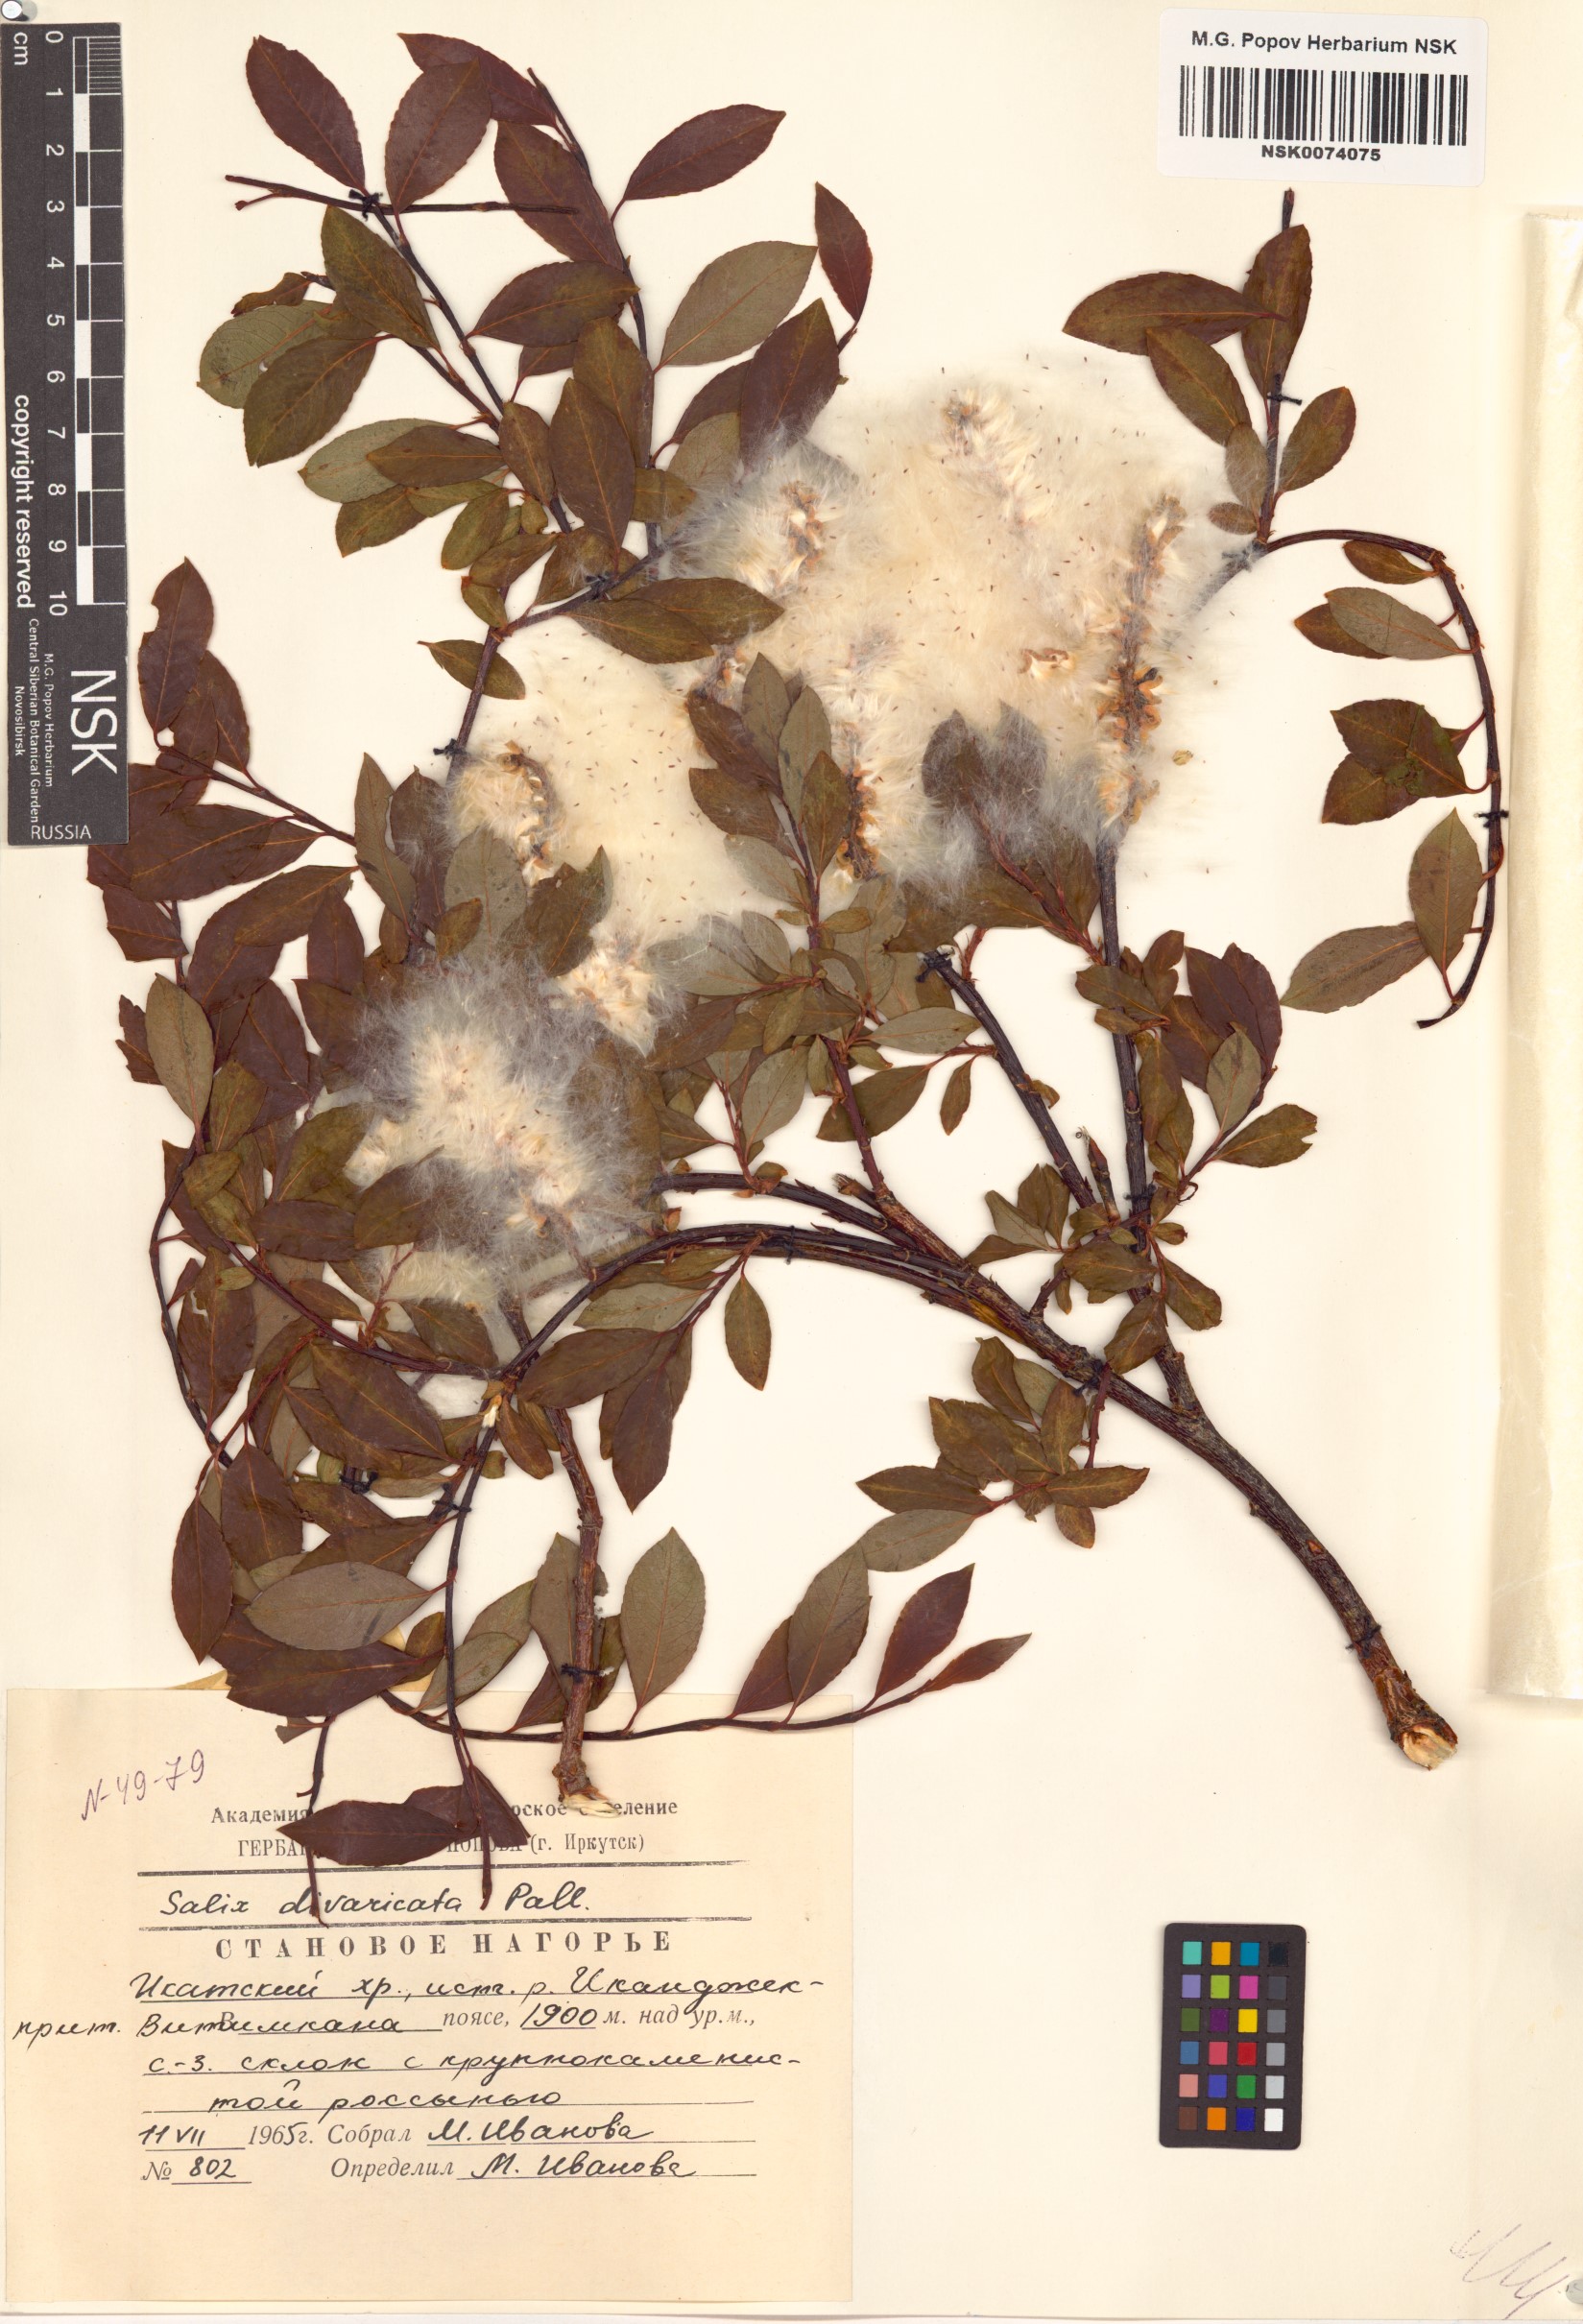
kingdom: Plantae
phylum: Tracheophyta
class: Magnoliopsida
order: Malpighiales
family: Salicaceae
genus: Salix
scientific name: Salix divaricata
